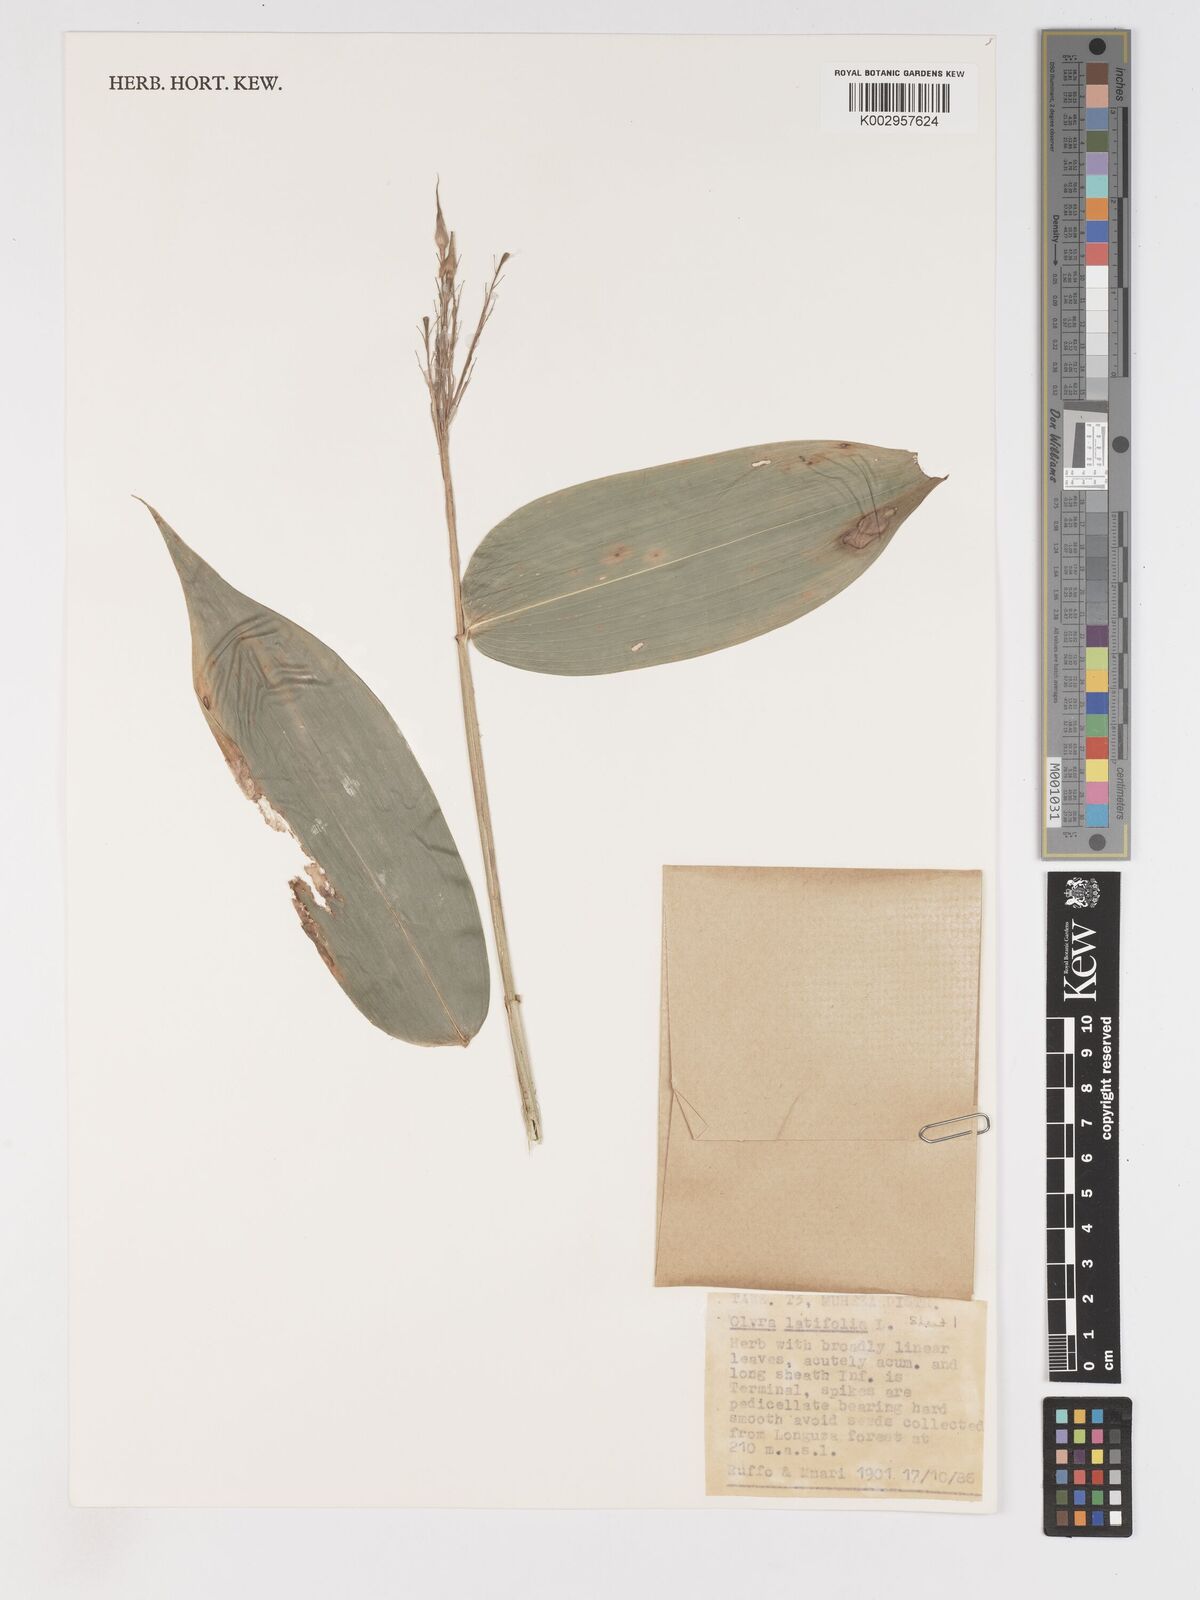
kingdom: Plantae
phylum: Tracheophyta
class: Liliopsida
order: Poales
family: Poaceae
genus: Olyra
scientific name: Olyra latifolia
